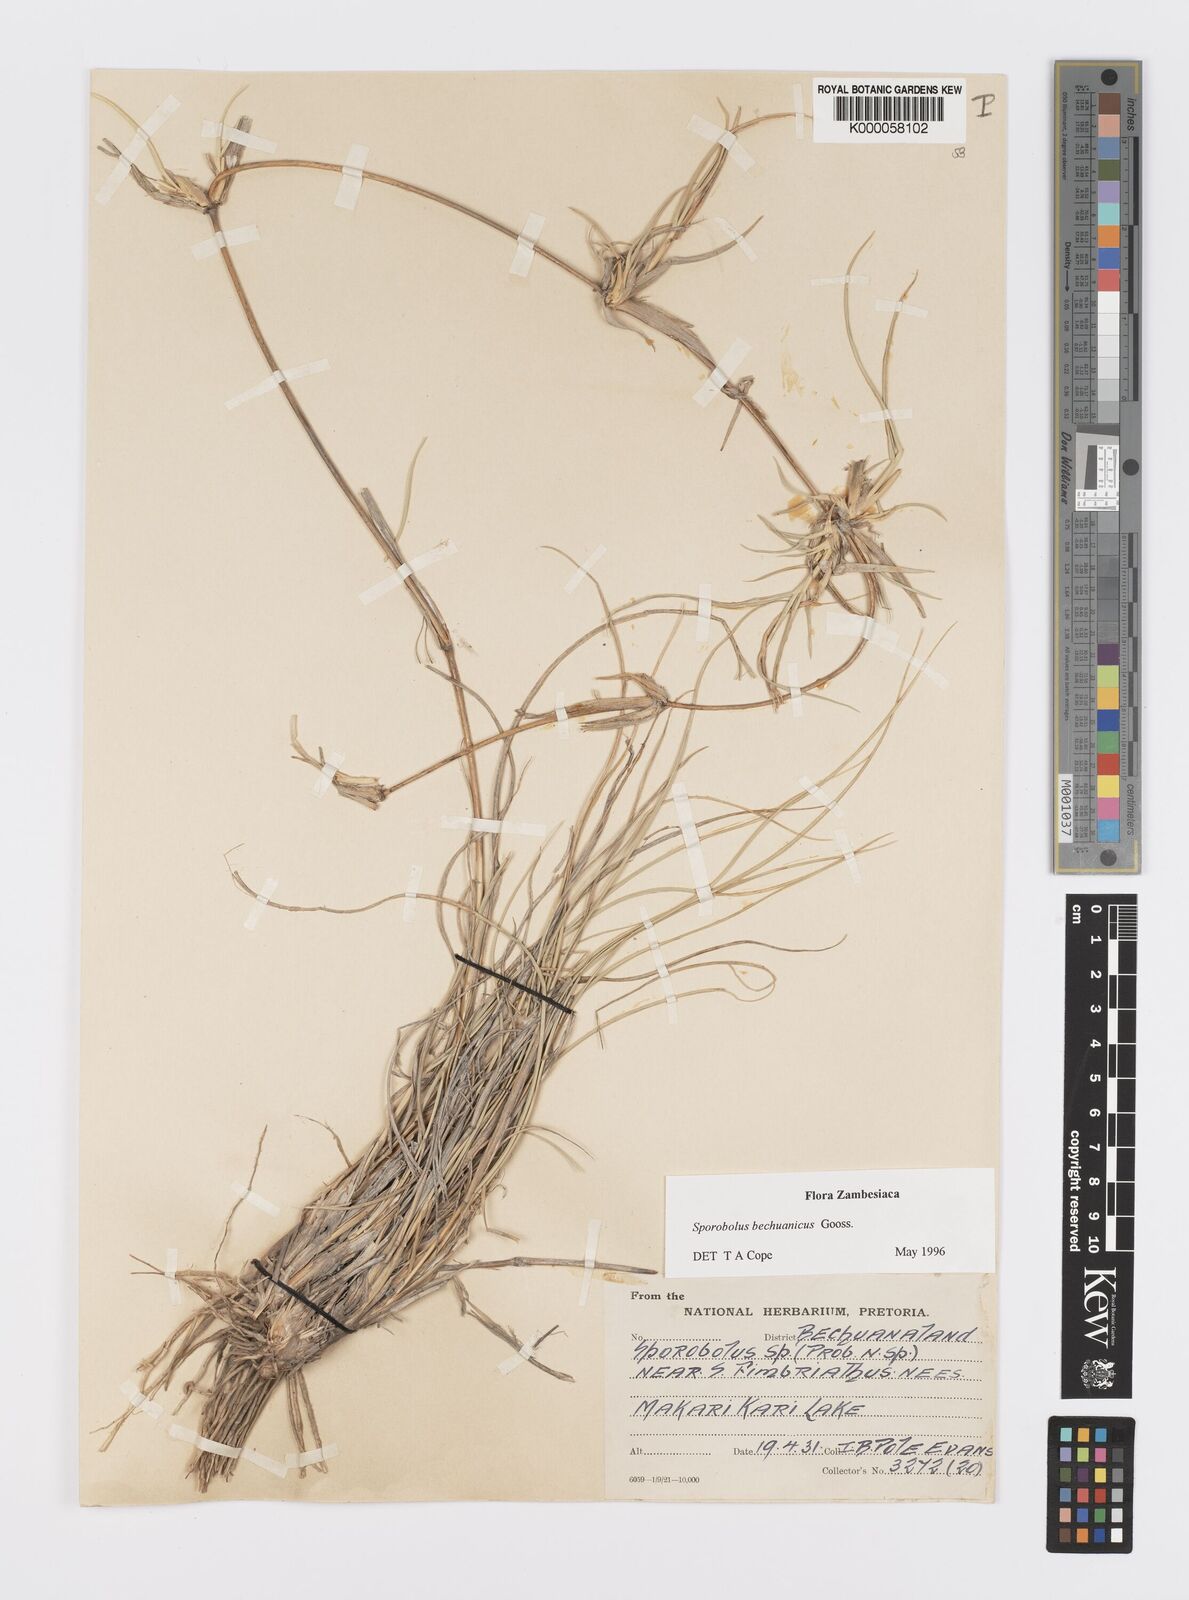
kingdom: Plantae
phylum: Tracheophyta
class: Liliopsida
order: Poales
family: Poaceae
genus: Sporobolus
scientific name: Sporobolus bechuanicus
